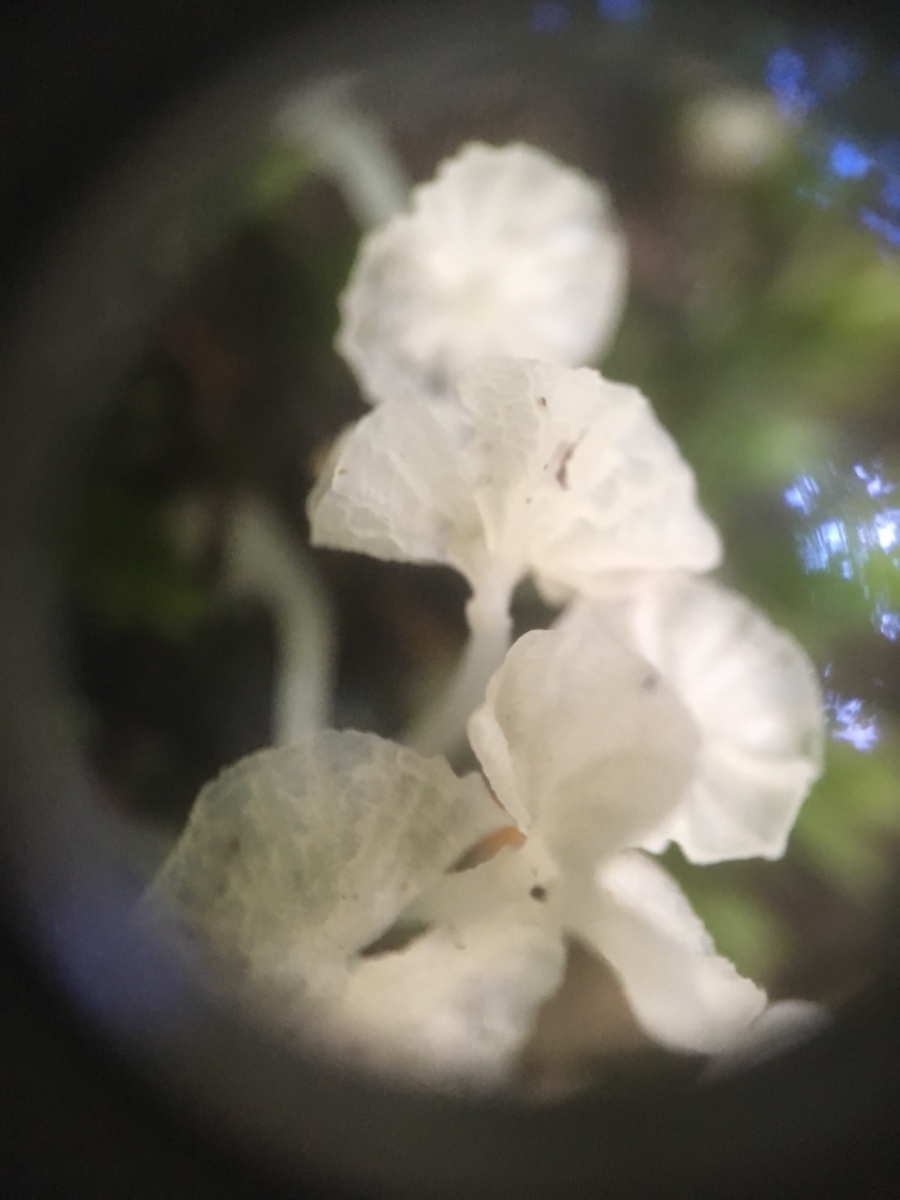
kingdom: Fungi
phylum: Basidiomycota
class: Agaricomycetes
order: Agaricales
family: Tricholomataceae
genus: Delicatula
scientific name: Delicatula integrella
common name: slørhuesvamp
